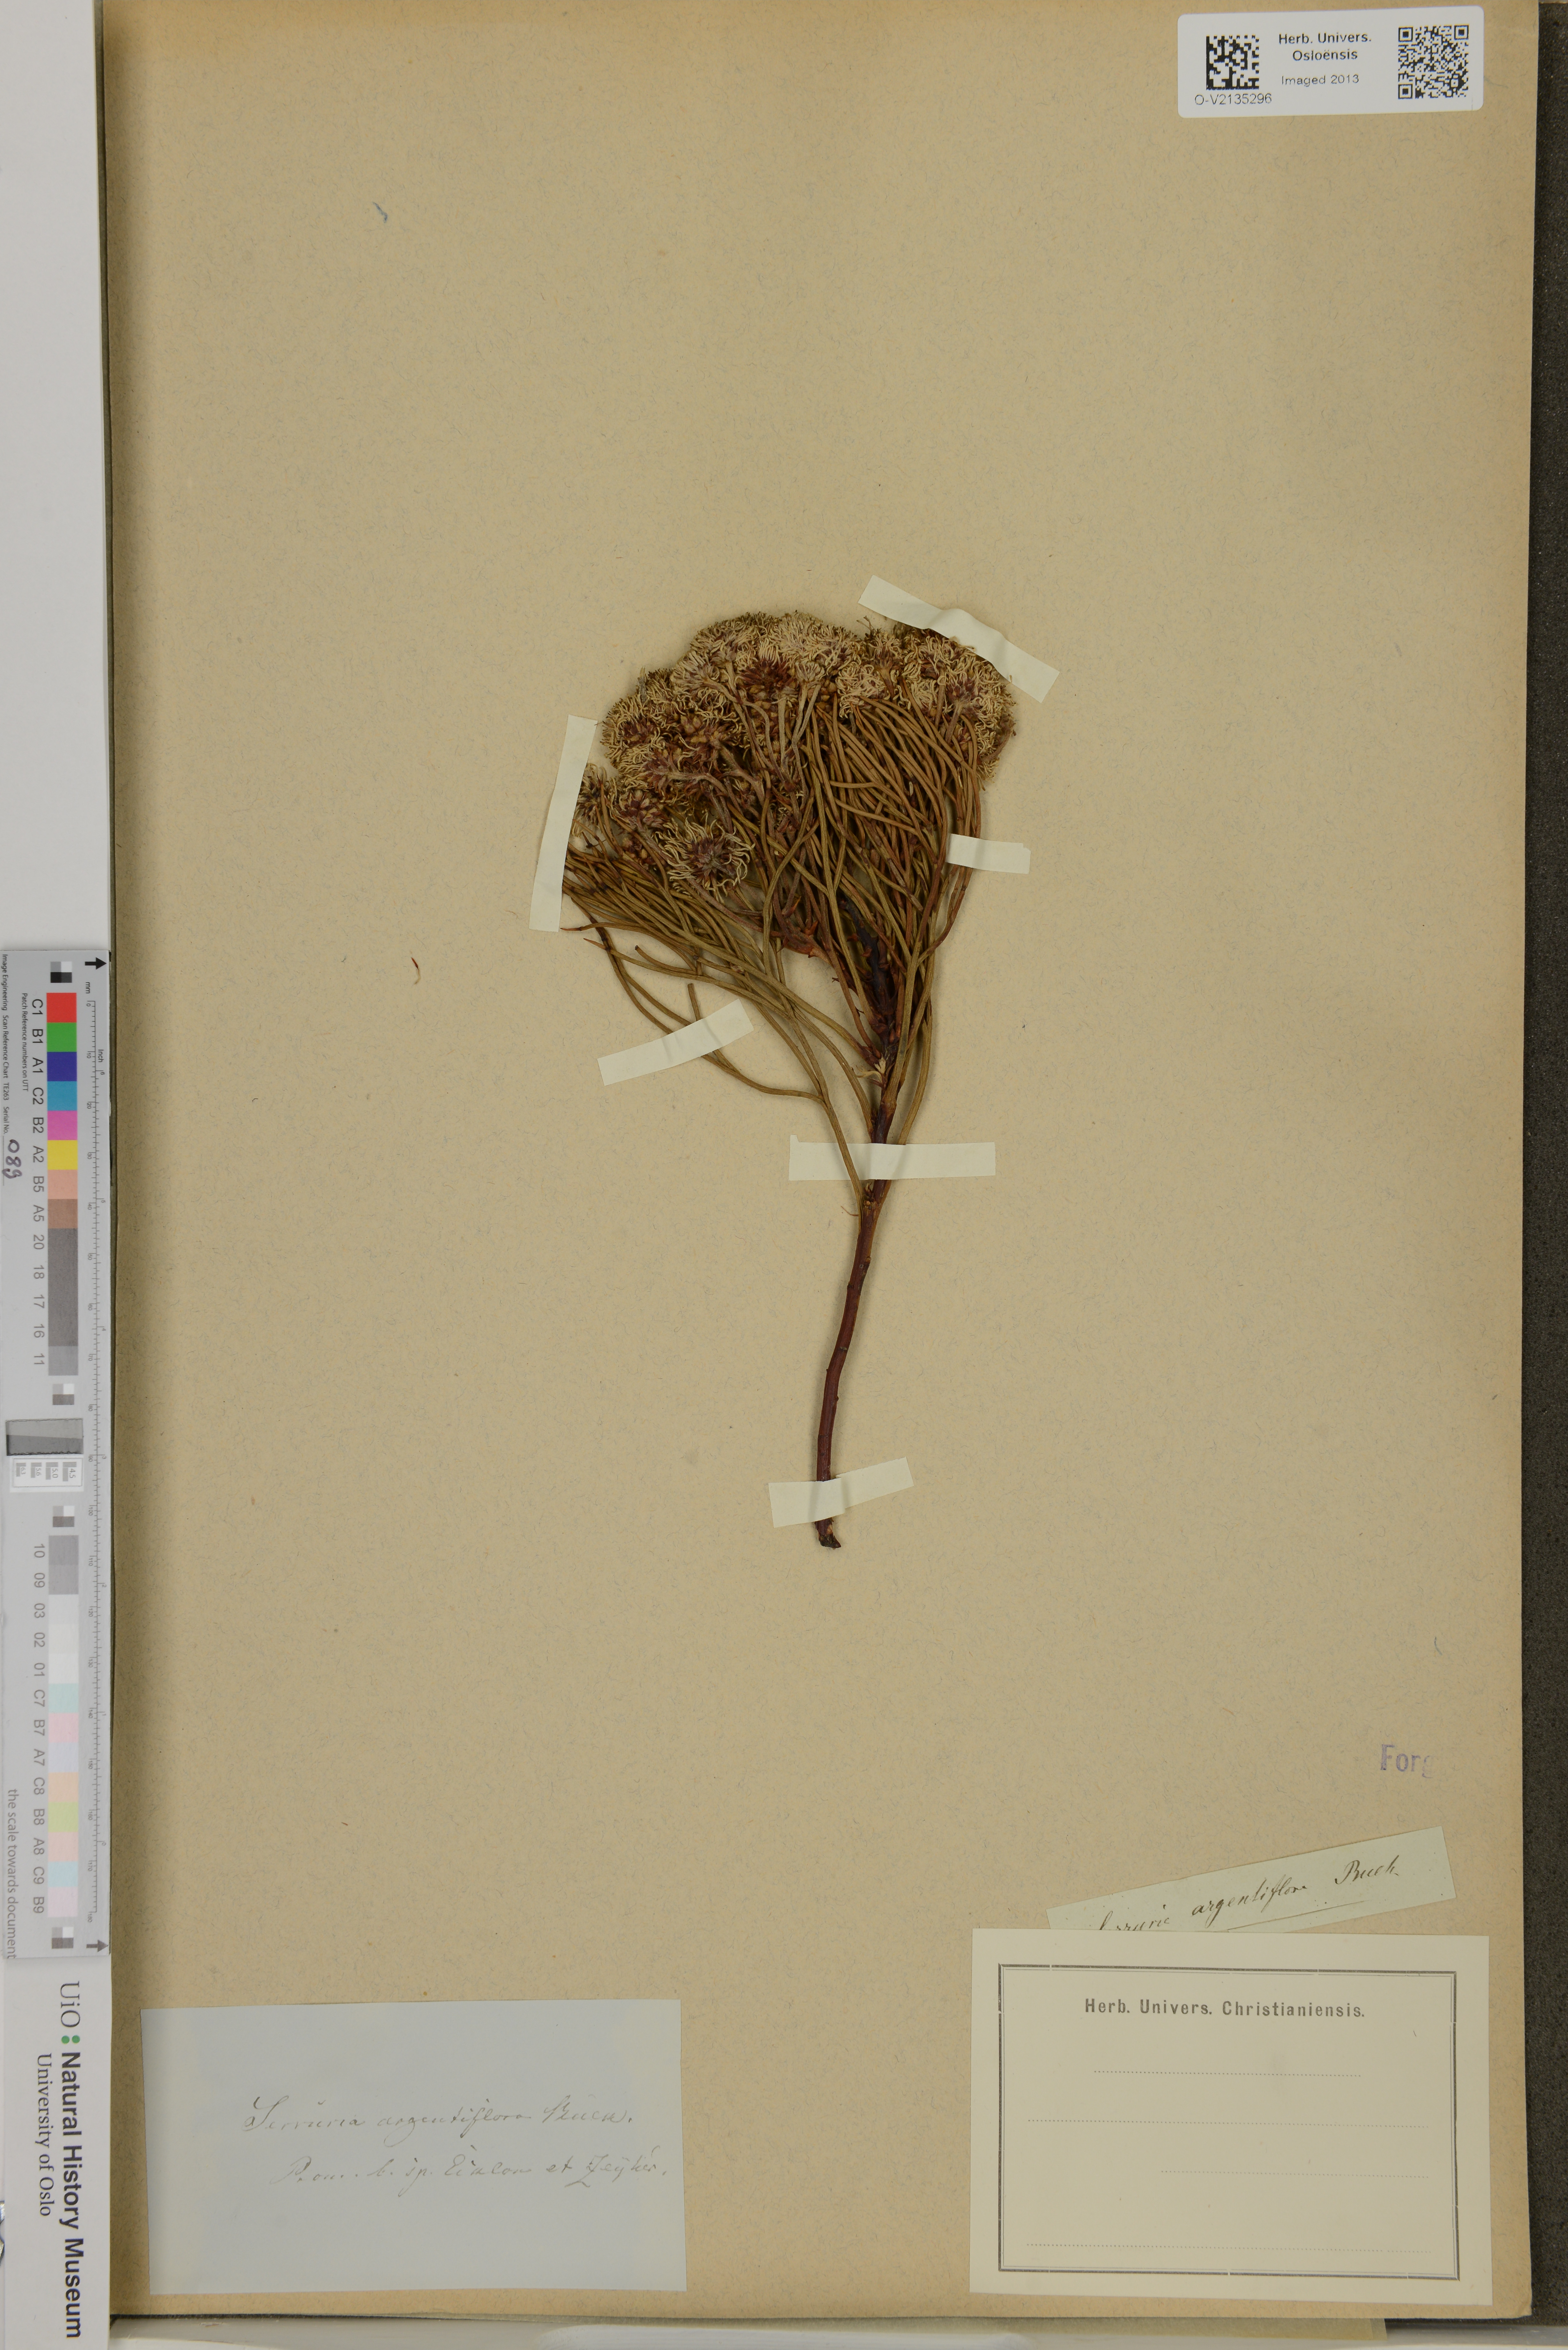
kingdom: Plantae
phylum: Tracheophyta
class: Magnoliopsida
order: Proteales
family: Proteaceae
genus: Serruria
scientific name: Serruria triternata
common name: Tulbagh spiderhead
